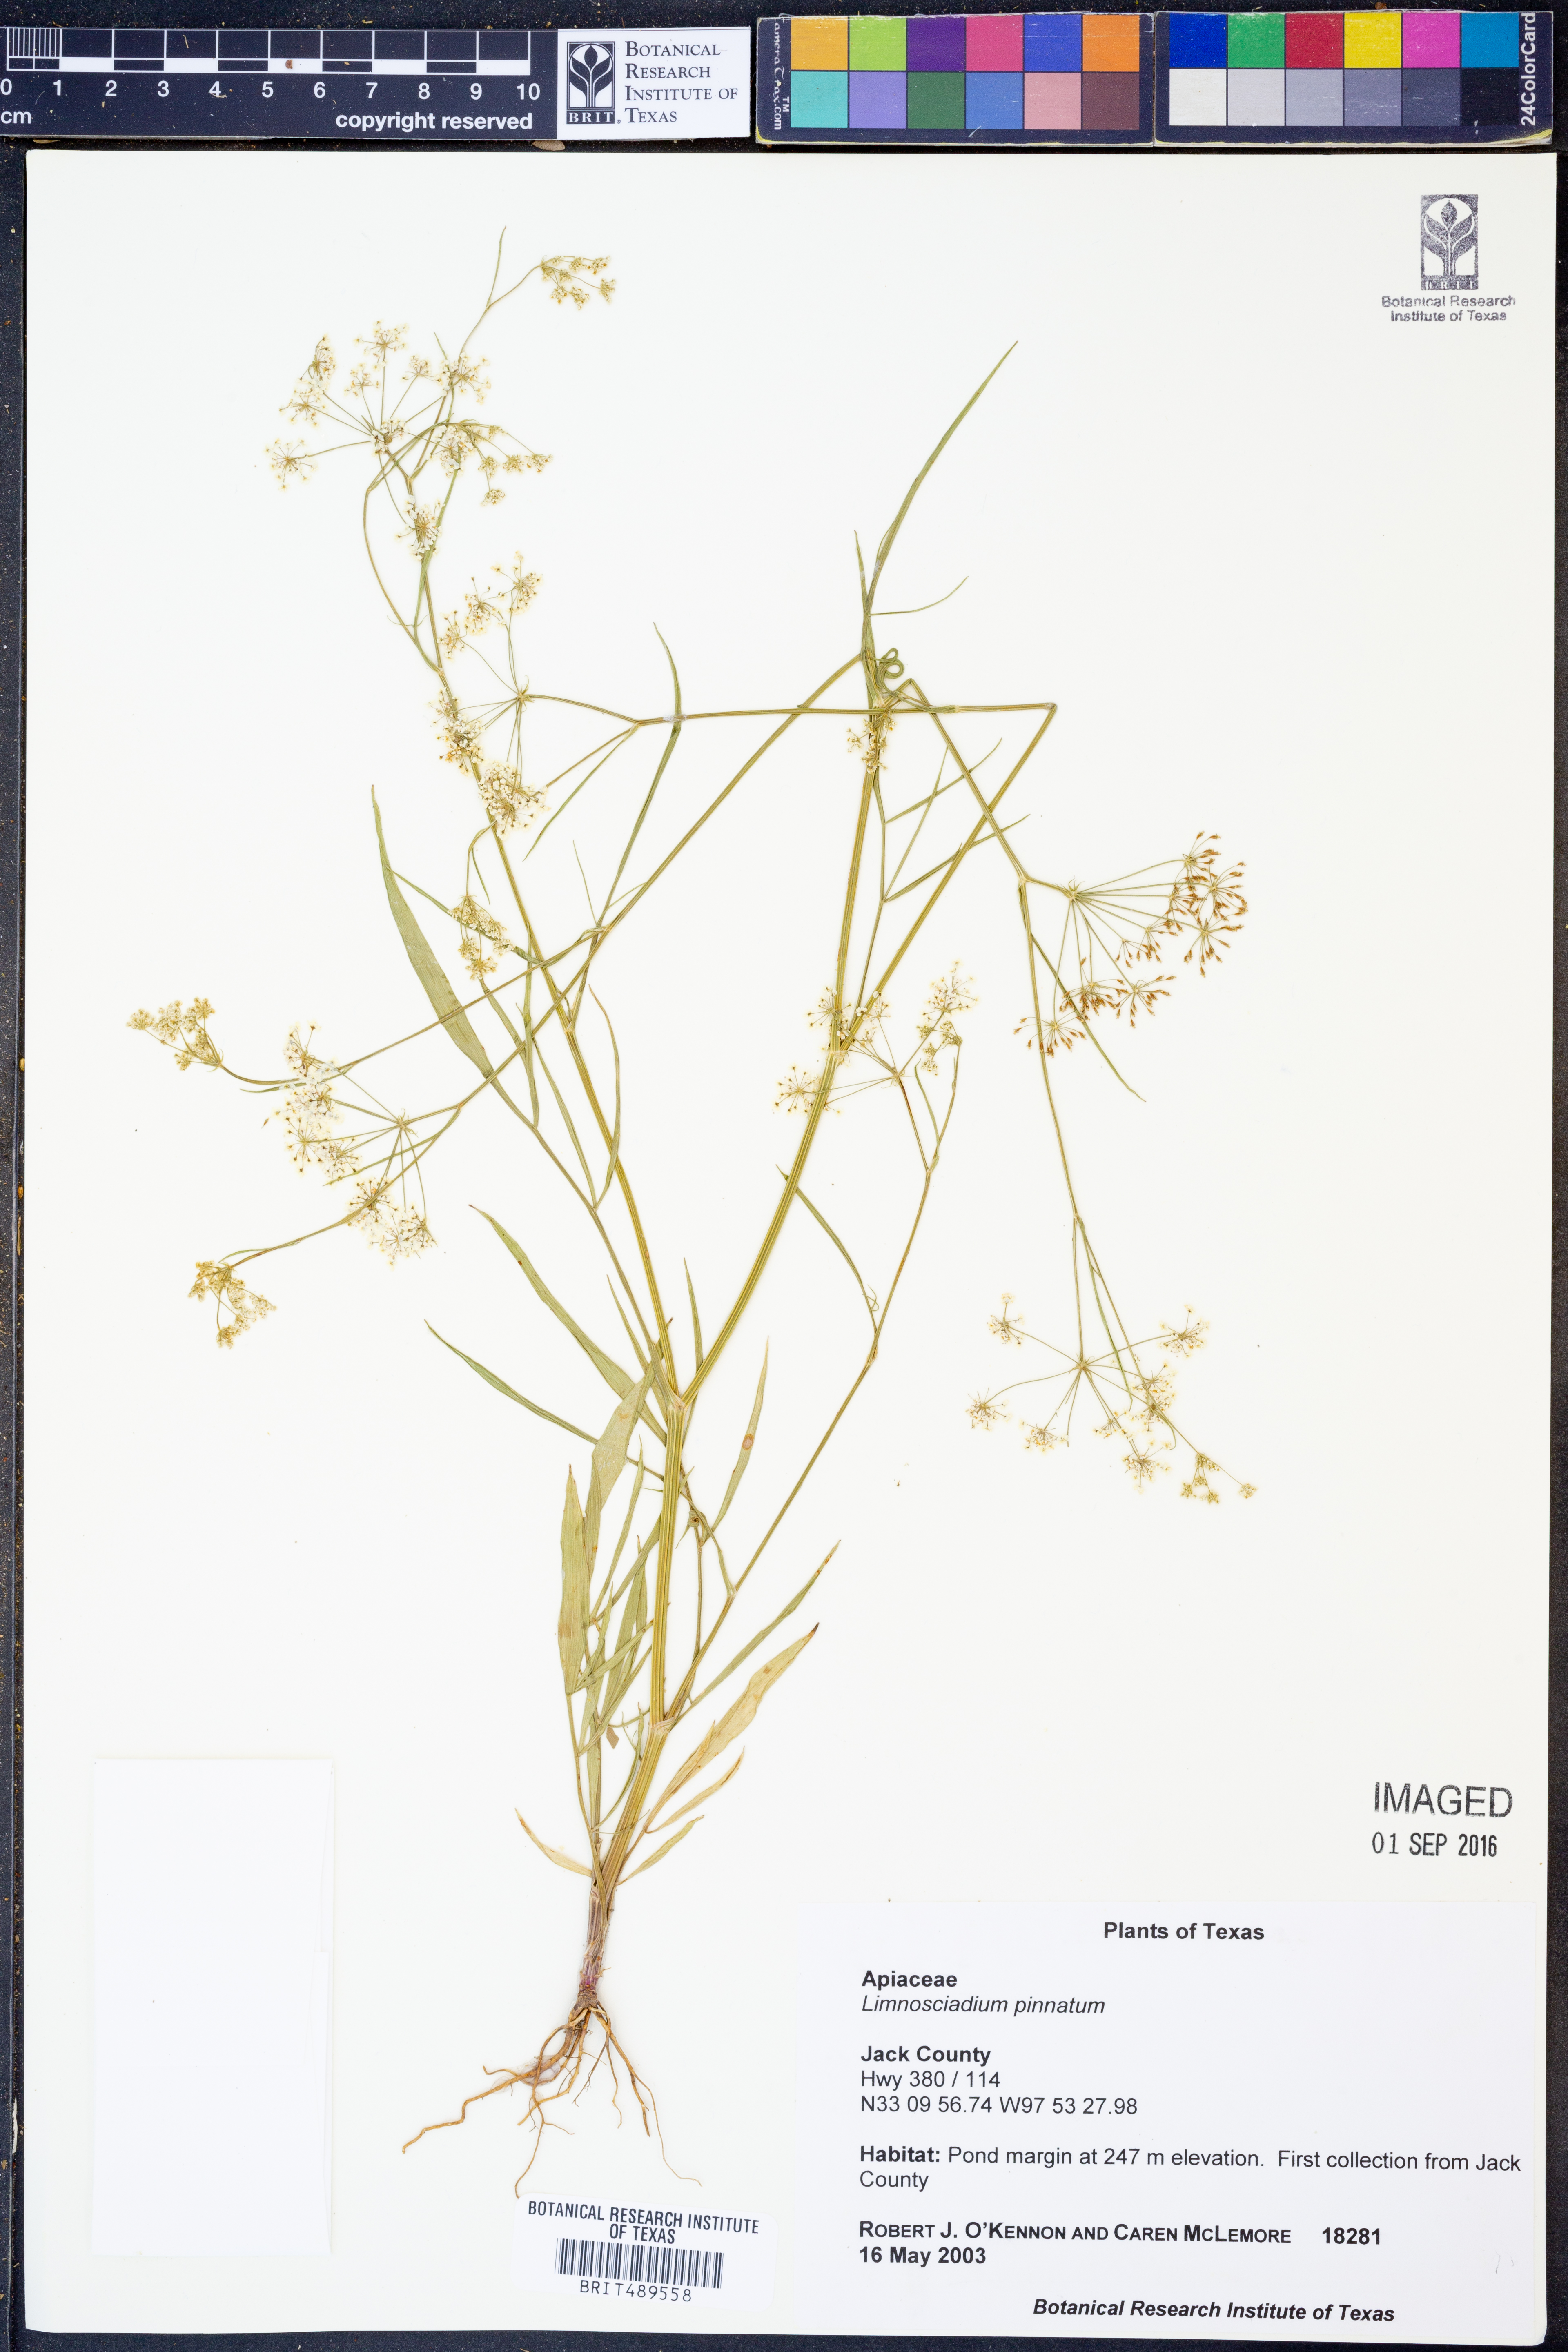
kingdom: Plantae
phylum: Tracheophyta
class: Magnoliopsida
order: Apiales
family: Apiaceae
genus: Limnosciadium
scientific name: Limnosciadium pinnatum
